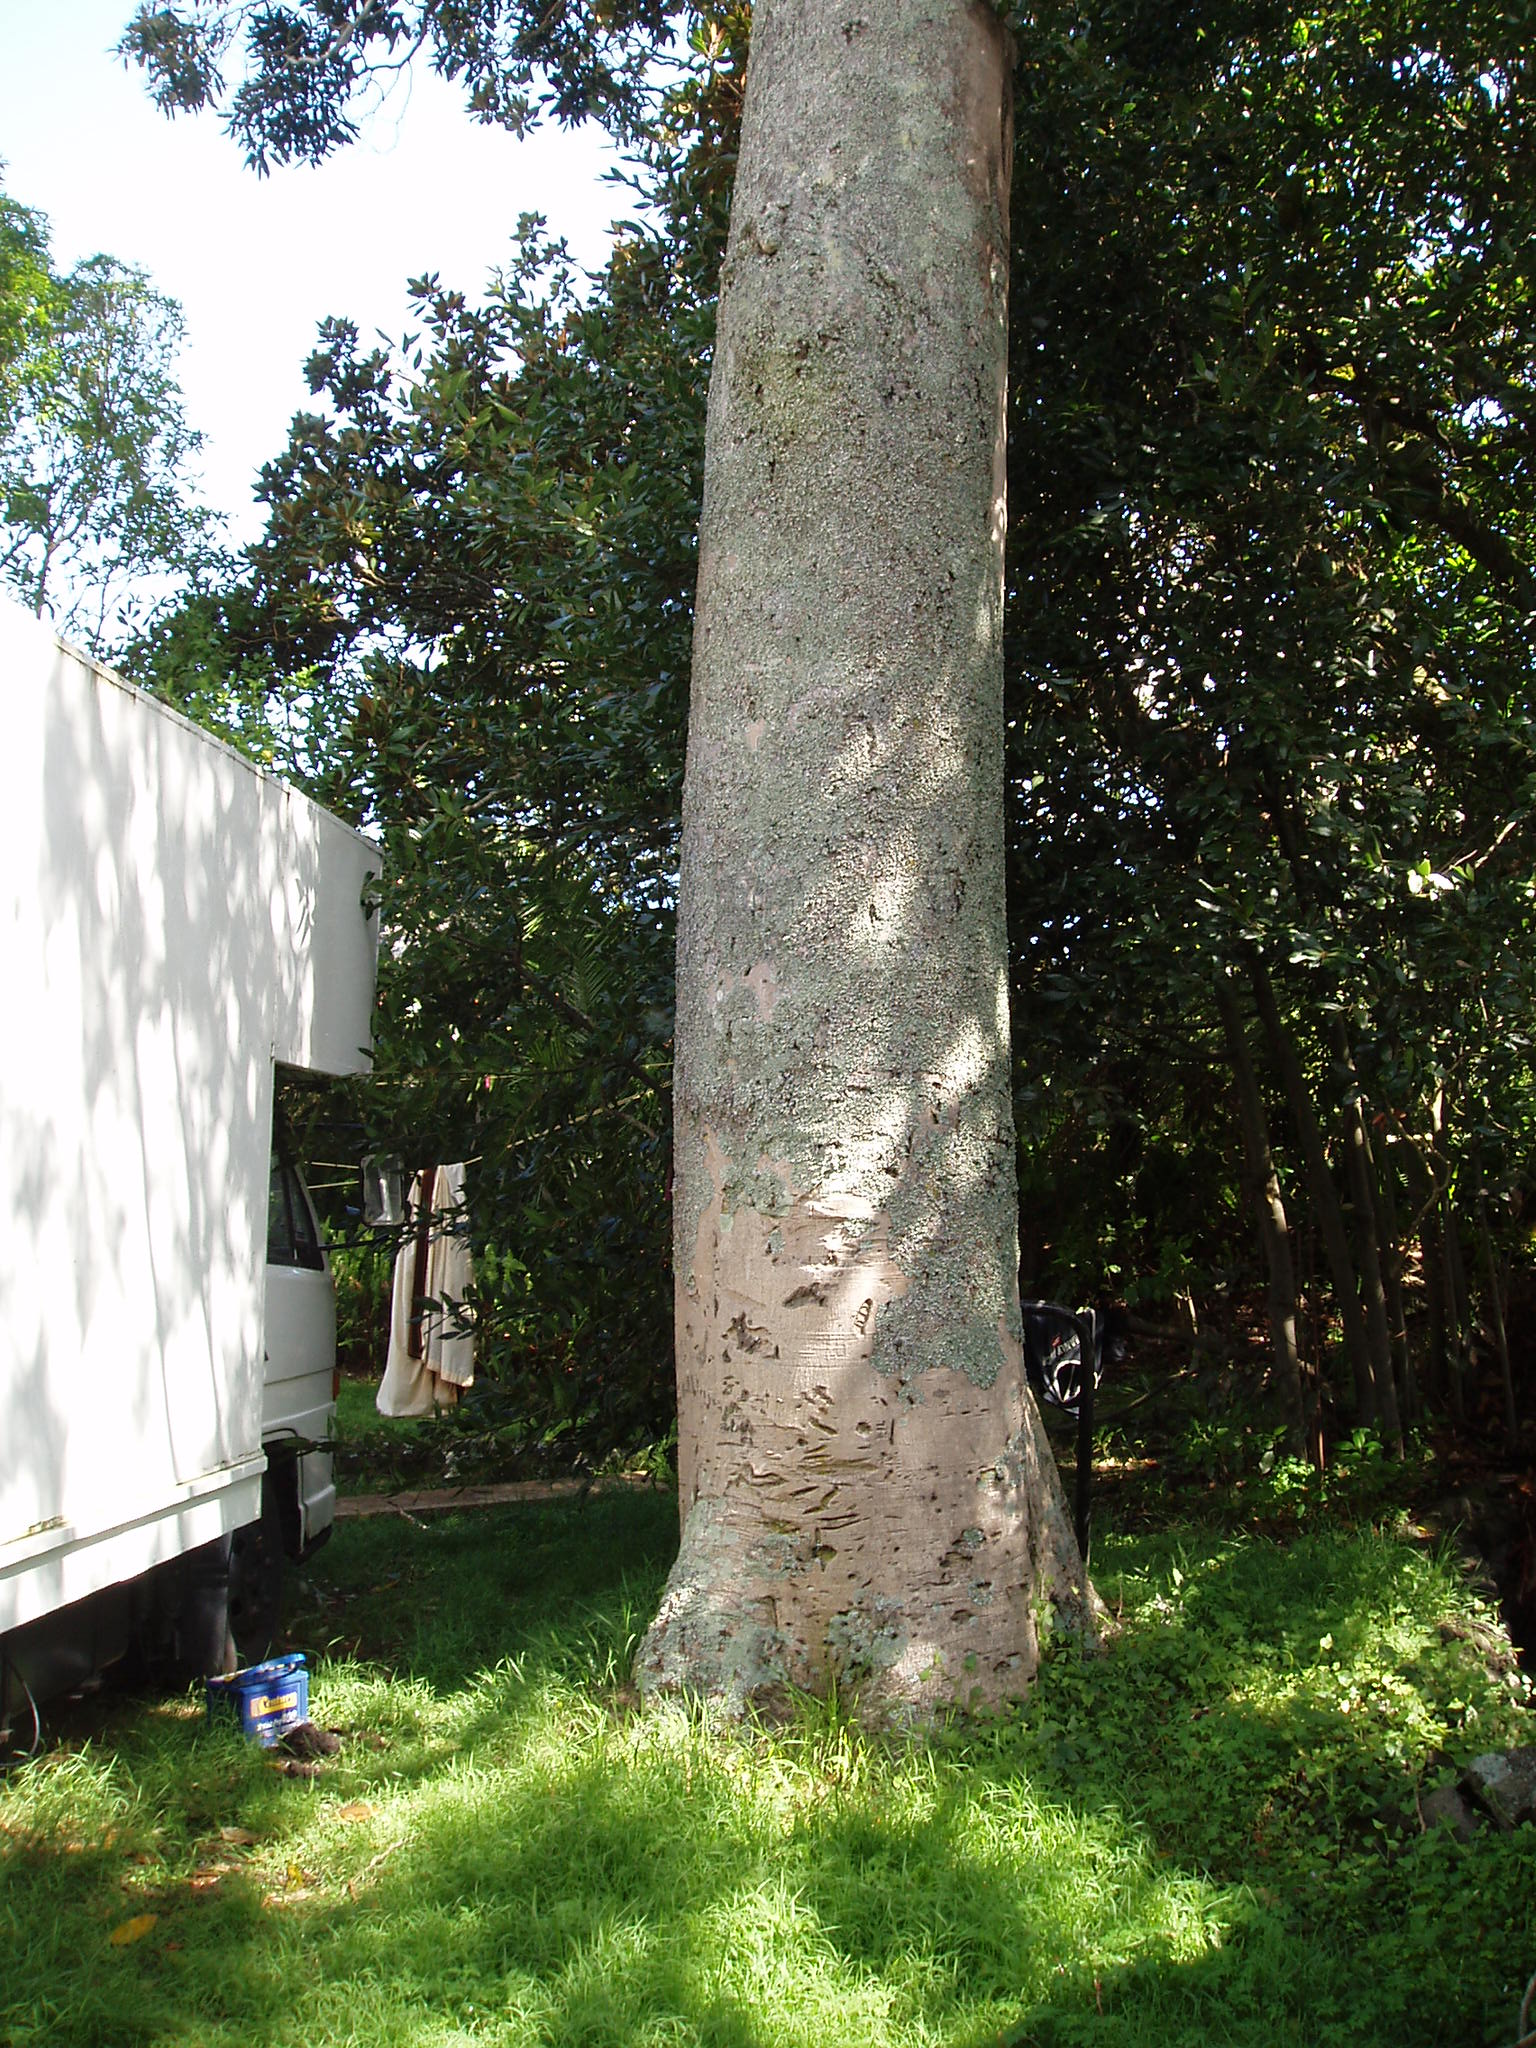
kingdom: Plantae
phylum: Tracheophyta
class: Magnoliopsida
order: Laurales
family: Lauraceae
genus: Cryptocarya
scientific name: Cryptocarya obovata
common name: Pepperberry-tree
